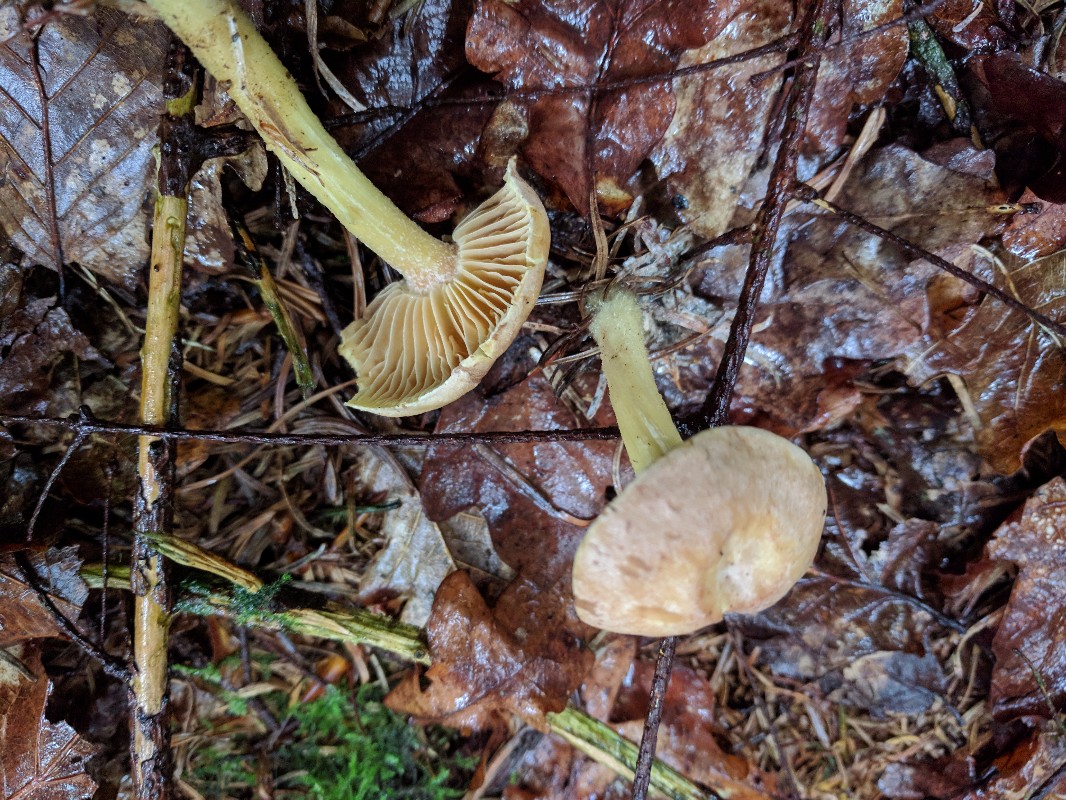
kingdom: Fungi
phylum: Basidiomycota
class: Agaricomycetes
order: Agaricales
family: Omphalotaceae
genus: Collybiopsis
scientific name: Collybiopsis peronata
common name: bestøvlet fladhat
